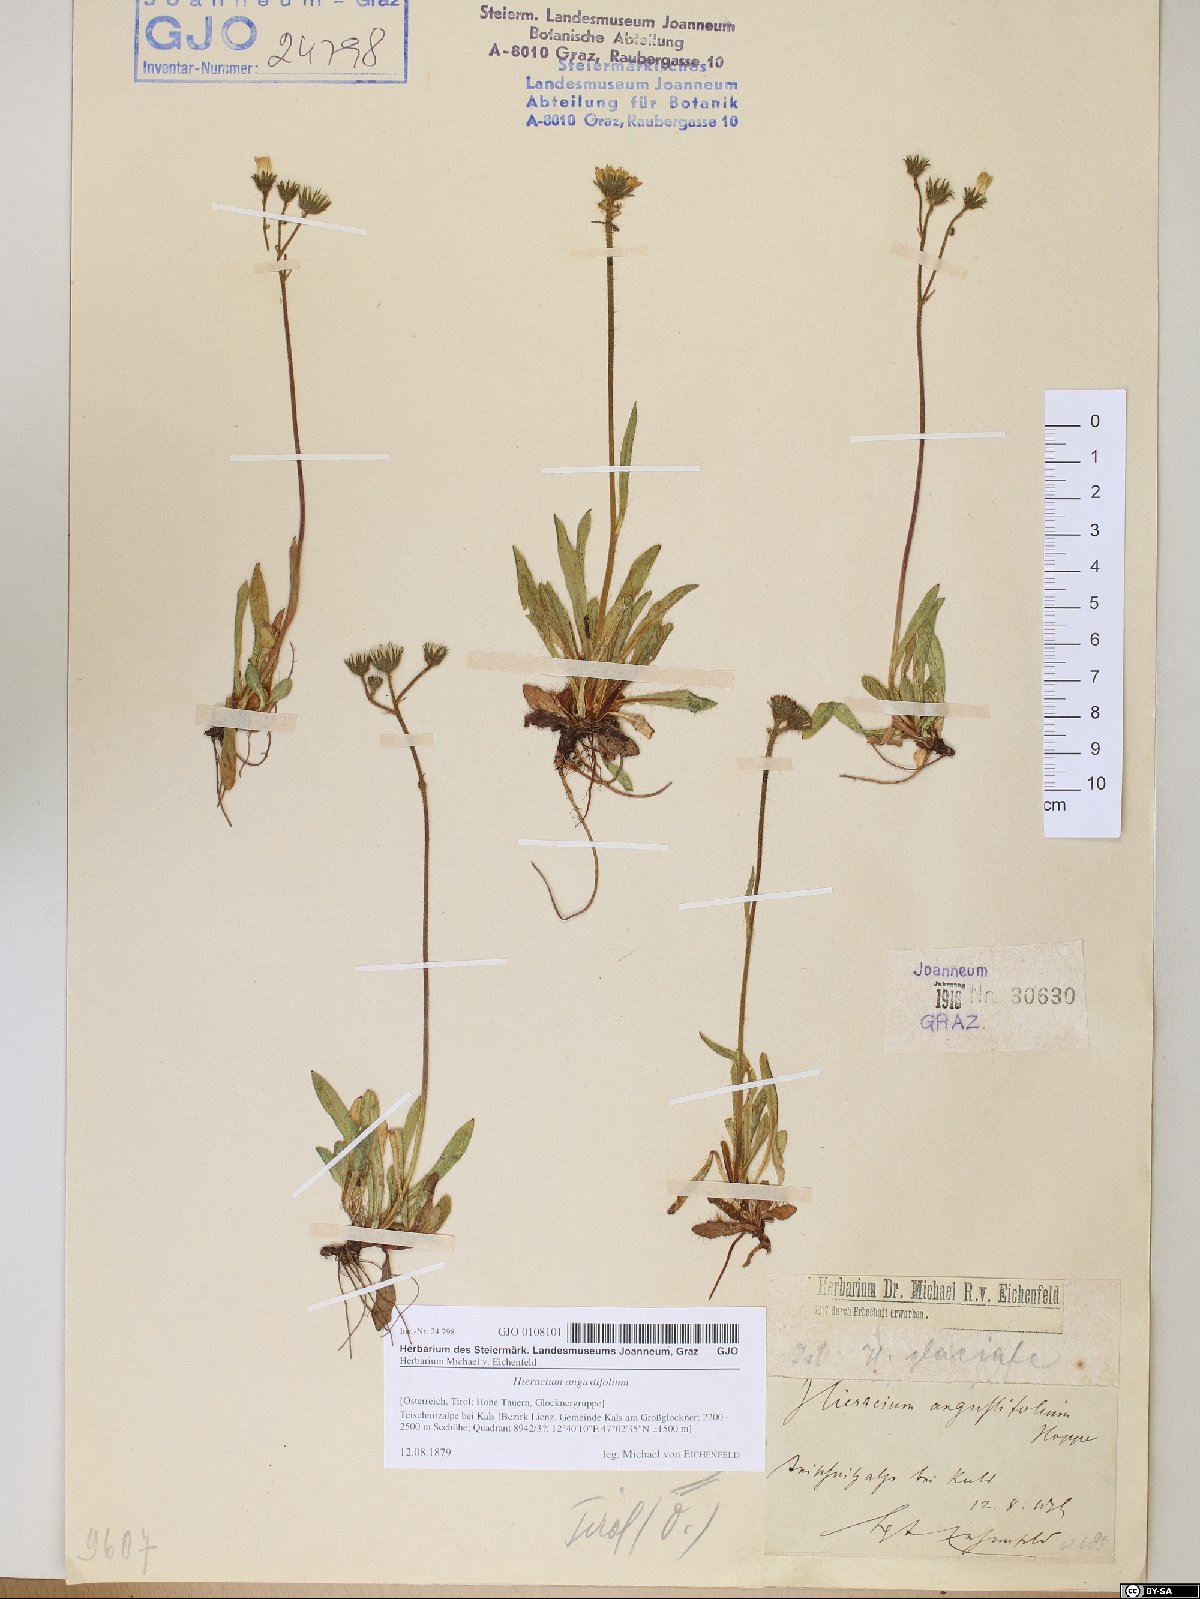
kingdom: Plantae
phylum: Tracheophyta
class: Magnoliopsida
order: Asterales
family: Asteraceae
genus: Pilosella
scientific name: Pilosella glacialis
